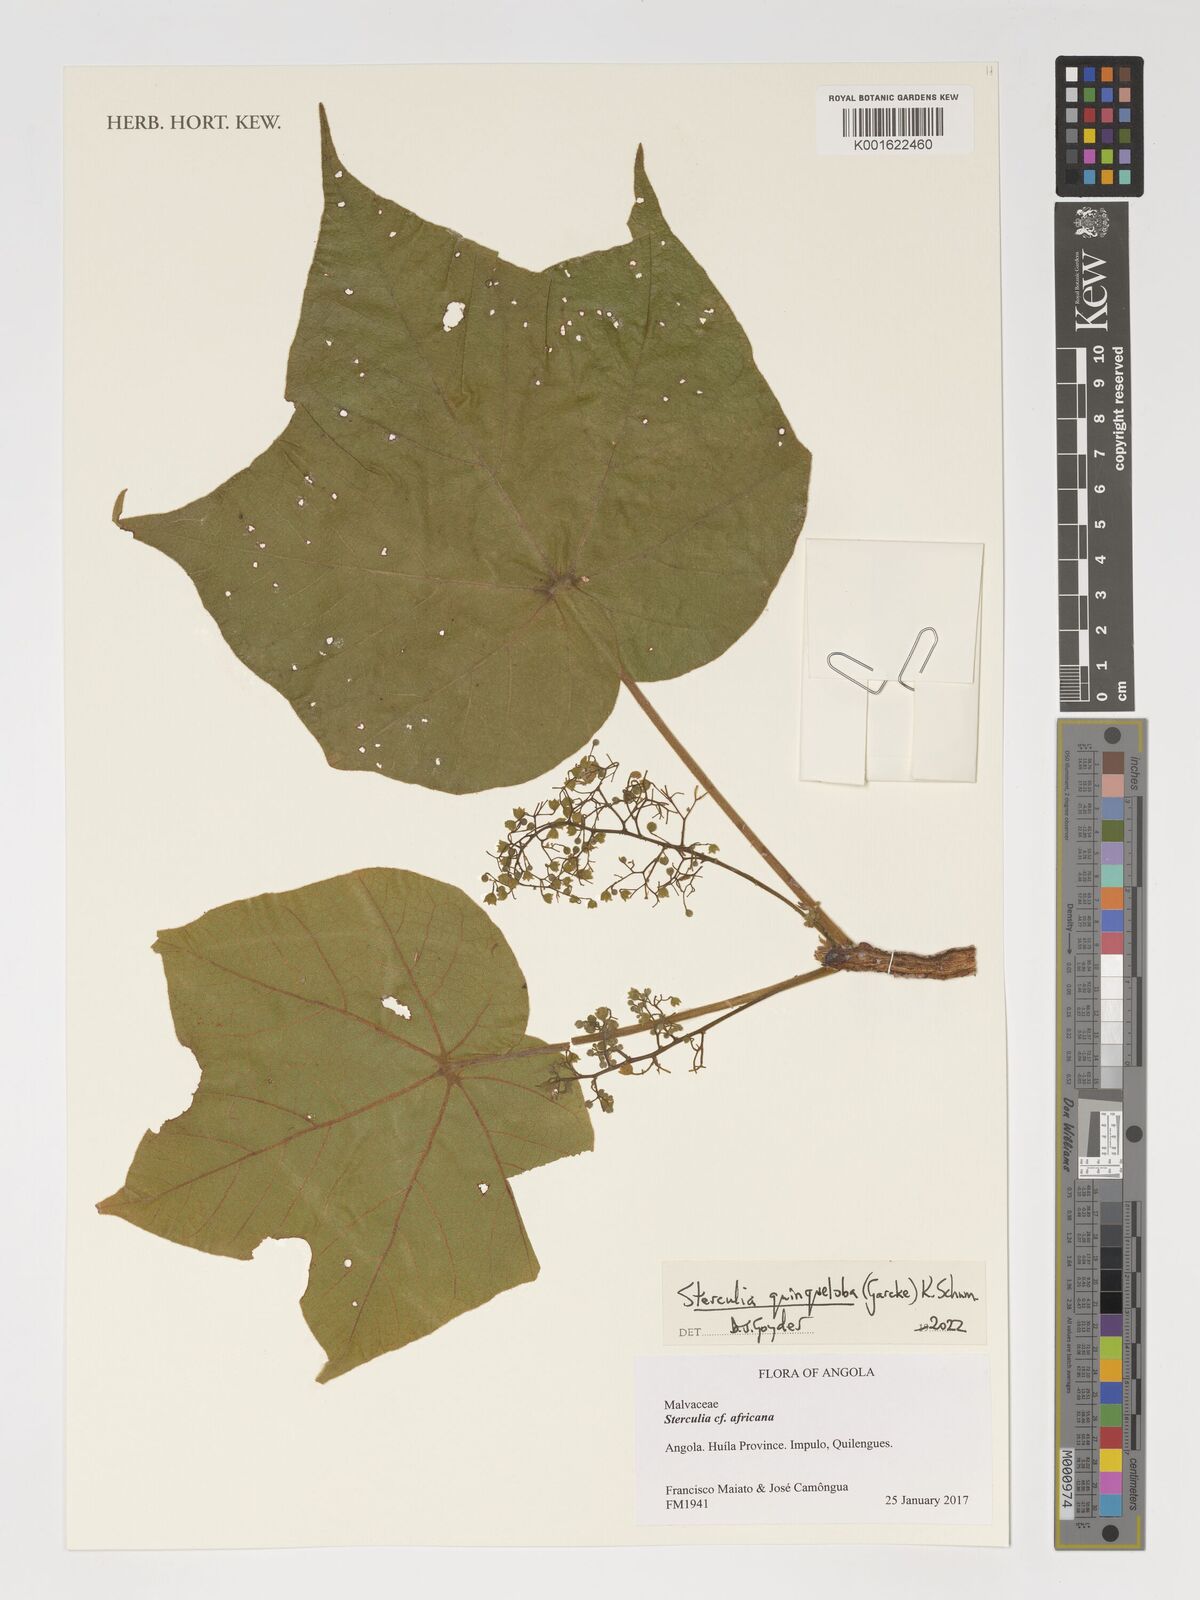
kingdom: Plantae
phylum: Tracheophyta
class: Magnoliopsida
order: Malvales
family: Malvaceae
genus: Sterculia
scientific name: Sterculia quinqueloba
